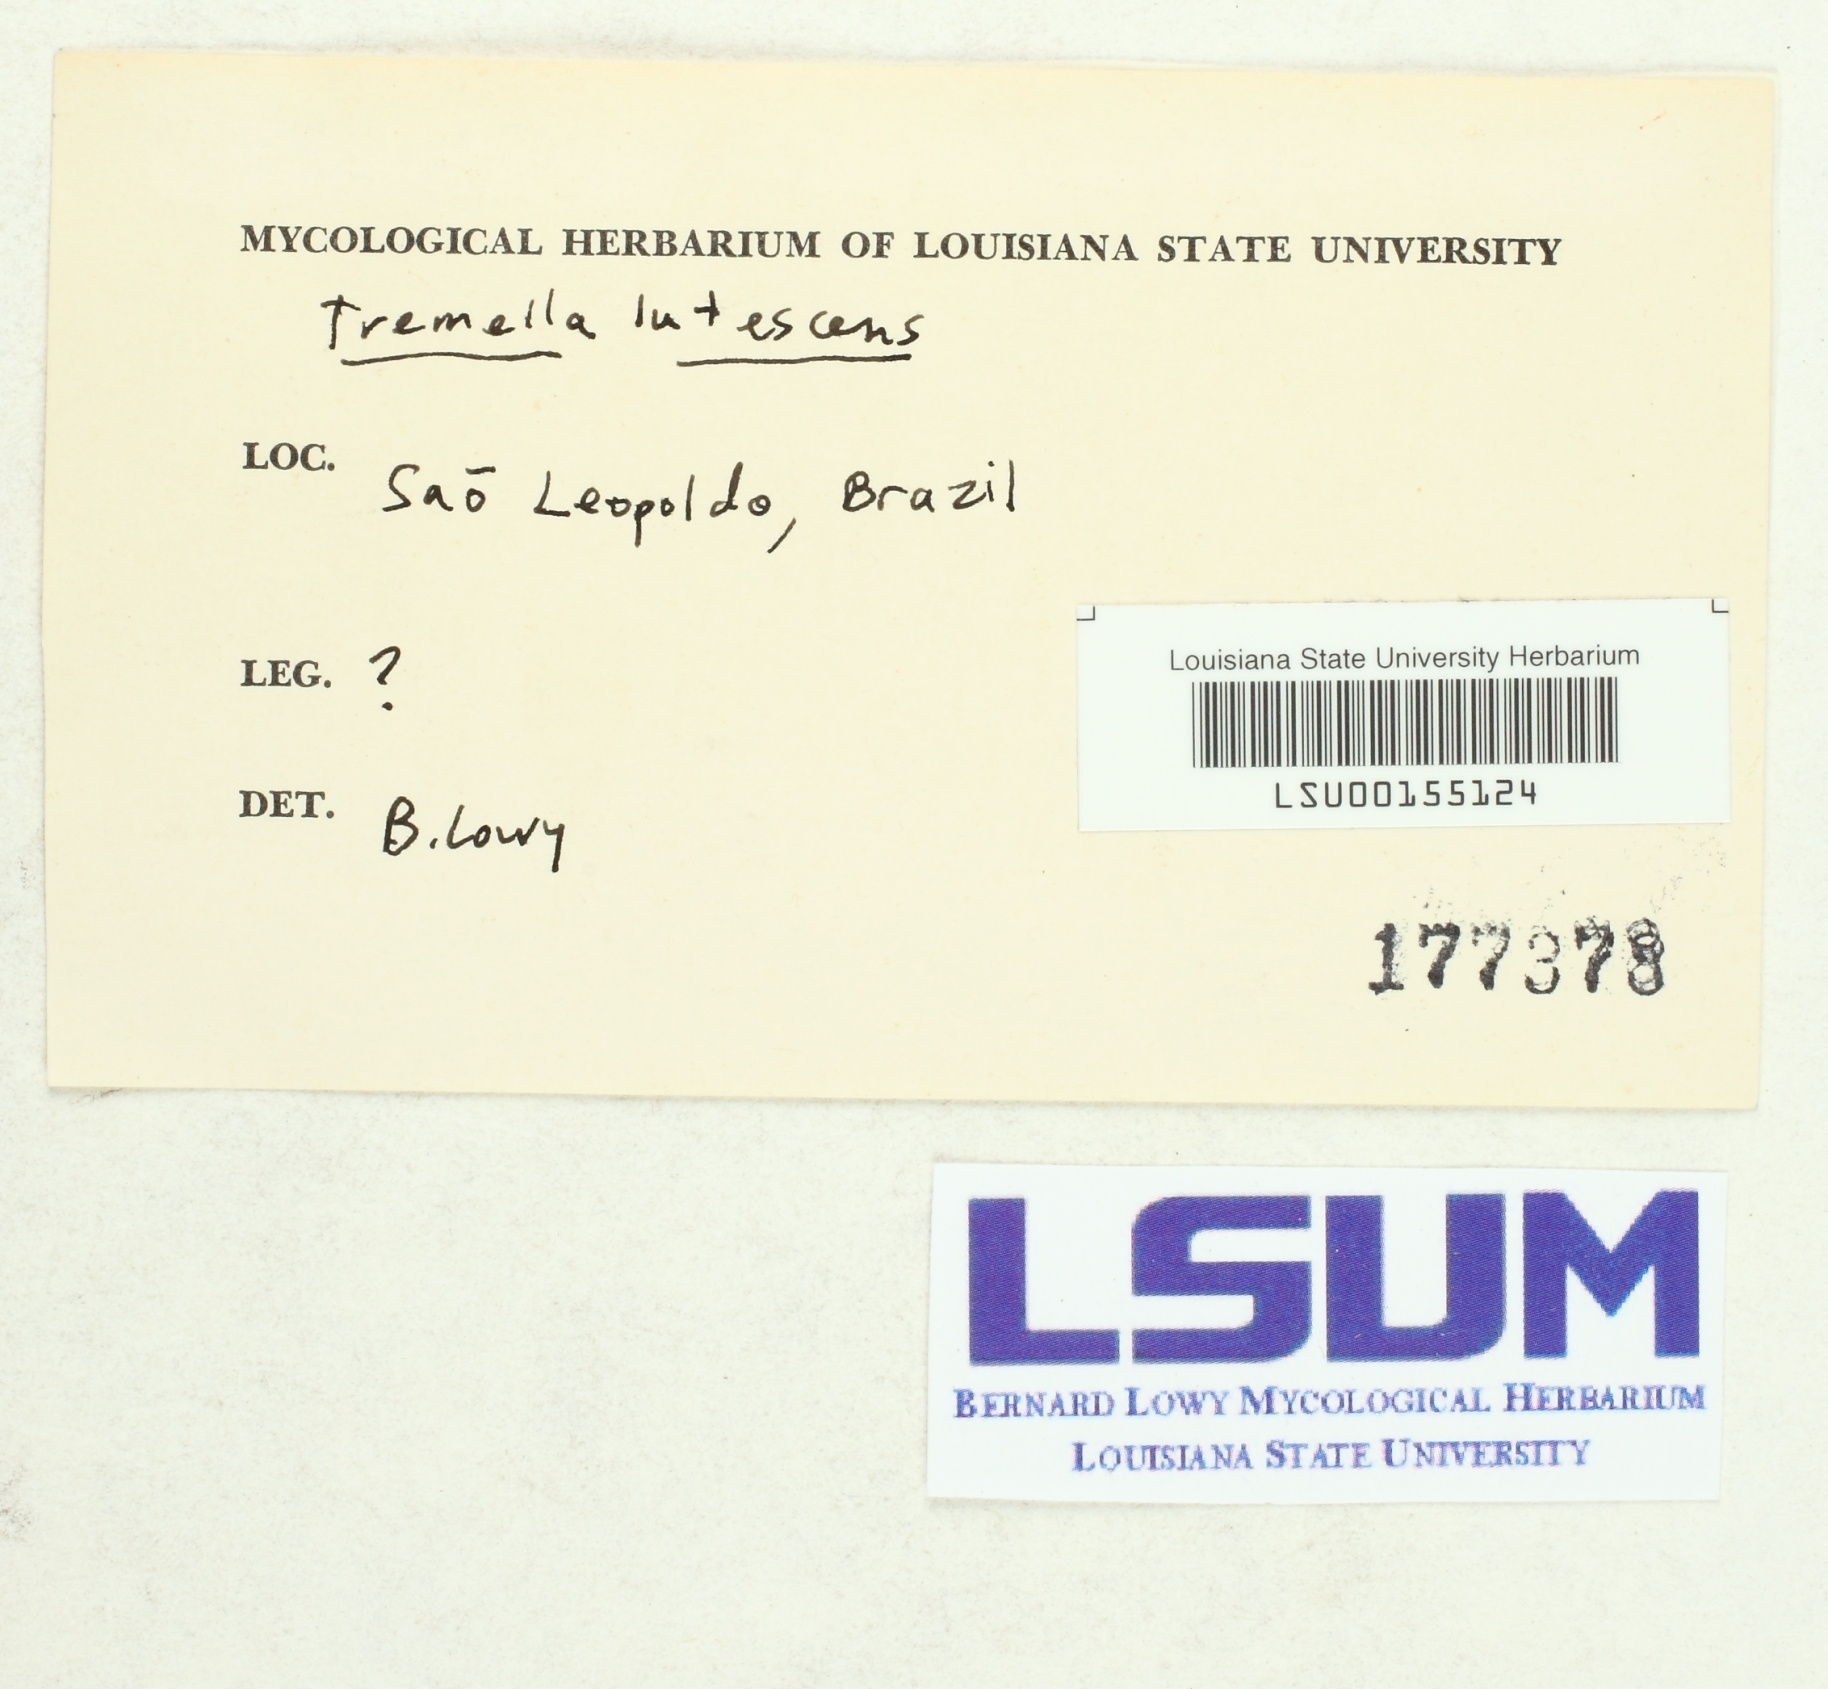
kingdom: Fungi
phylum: Basidiomycota
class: Tremellomycetes
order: Tremellales
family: Tremellaceae
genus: Tremella
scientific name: Tremella mesenterica
